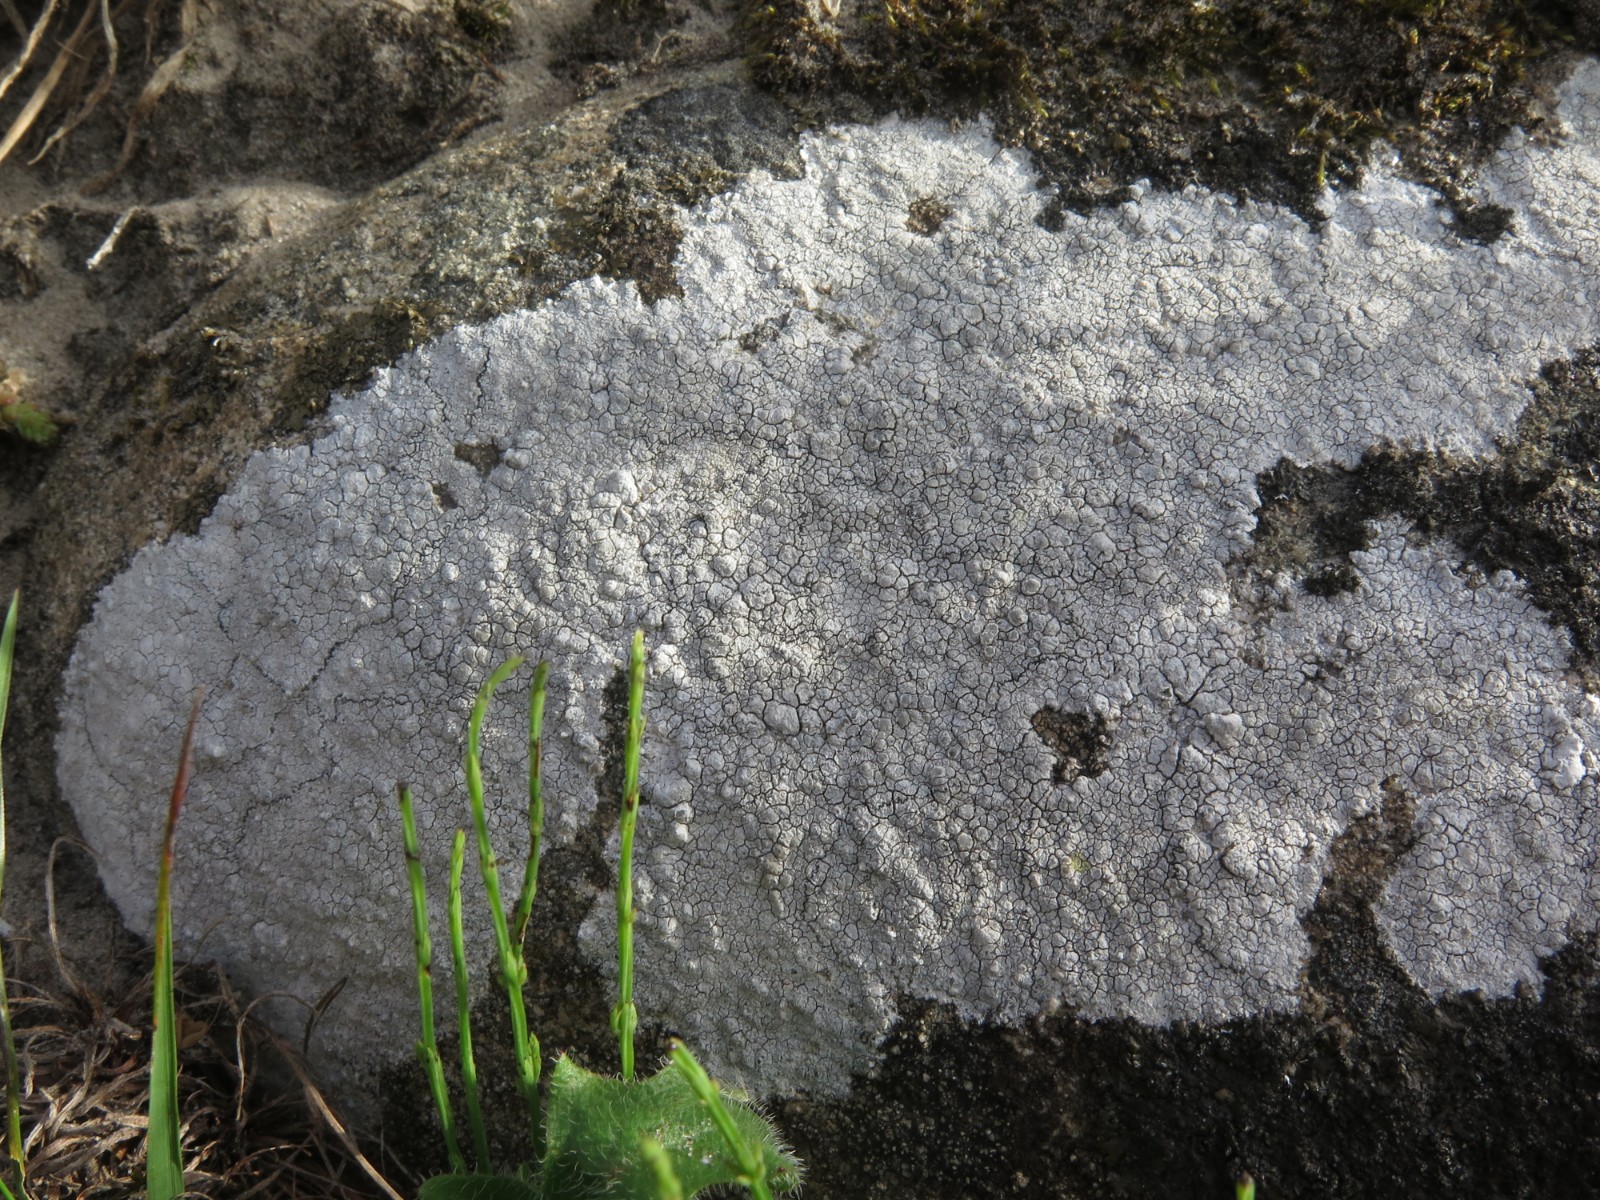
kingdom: Fungi
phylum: Ascomycota
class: Lecanoromycetes
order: Lecanorales
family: Lecanoraceae
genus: Glaucomaria
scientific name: Glaucomaria rupicola
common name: stengærde-kantskivelav
